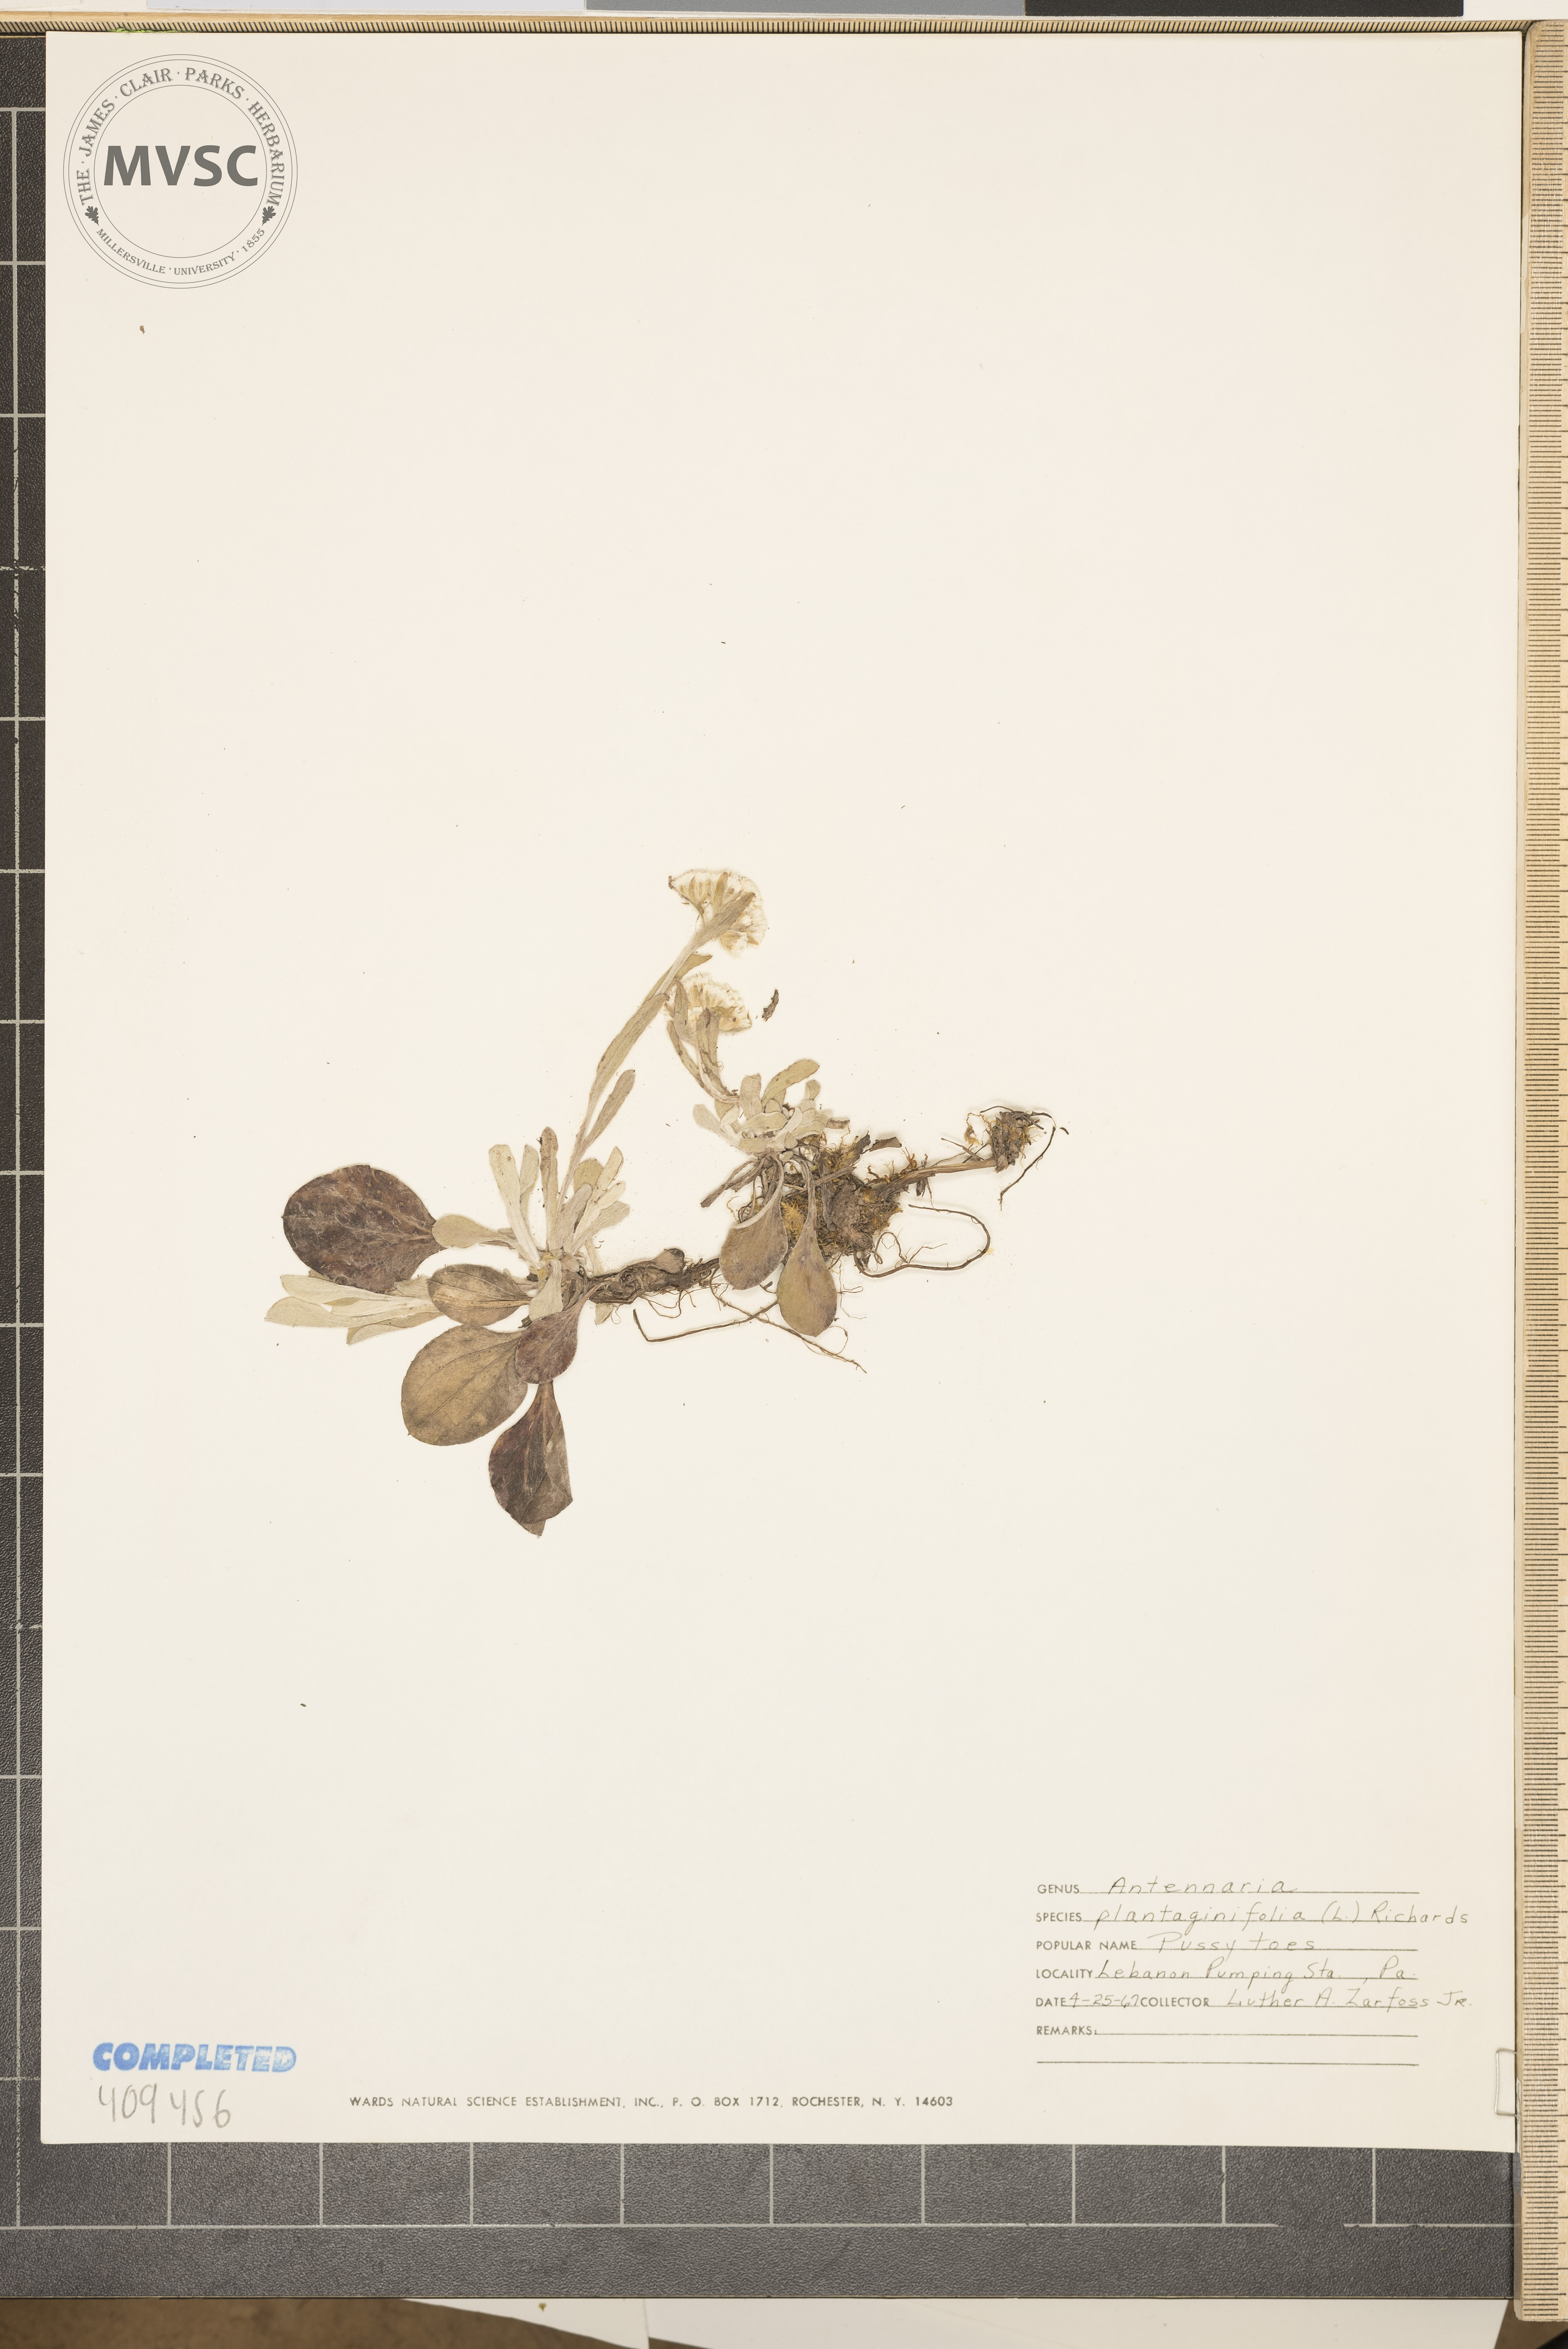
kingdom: Plantae
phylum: Tracheophyta
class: Magnoliopsida
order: Asterales
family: Asteraceae
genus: Antennaria
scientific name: Antennaria plantaginifolia
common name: Plantain-leaved pussytoes
